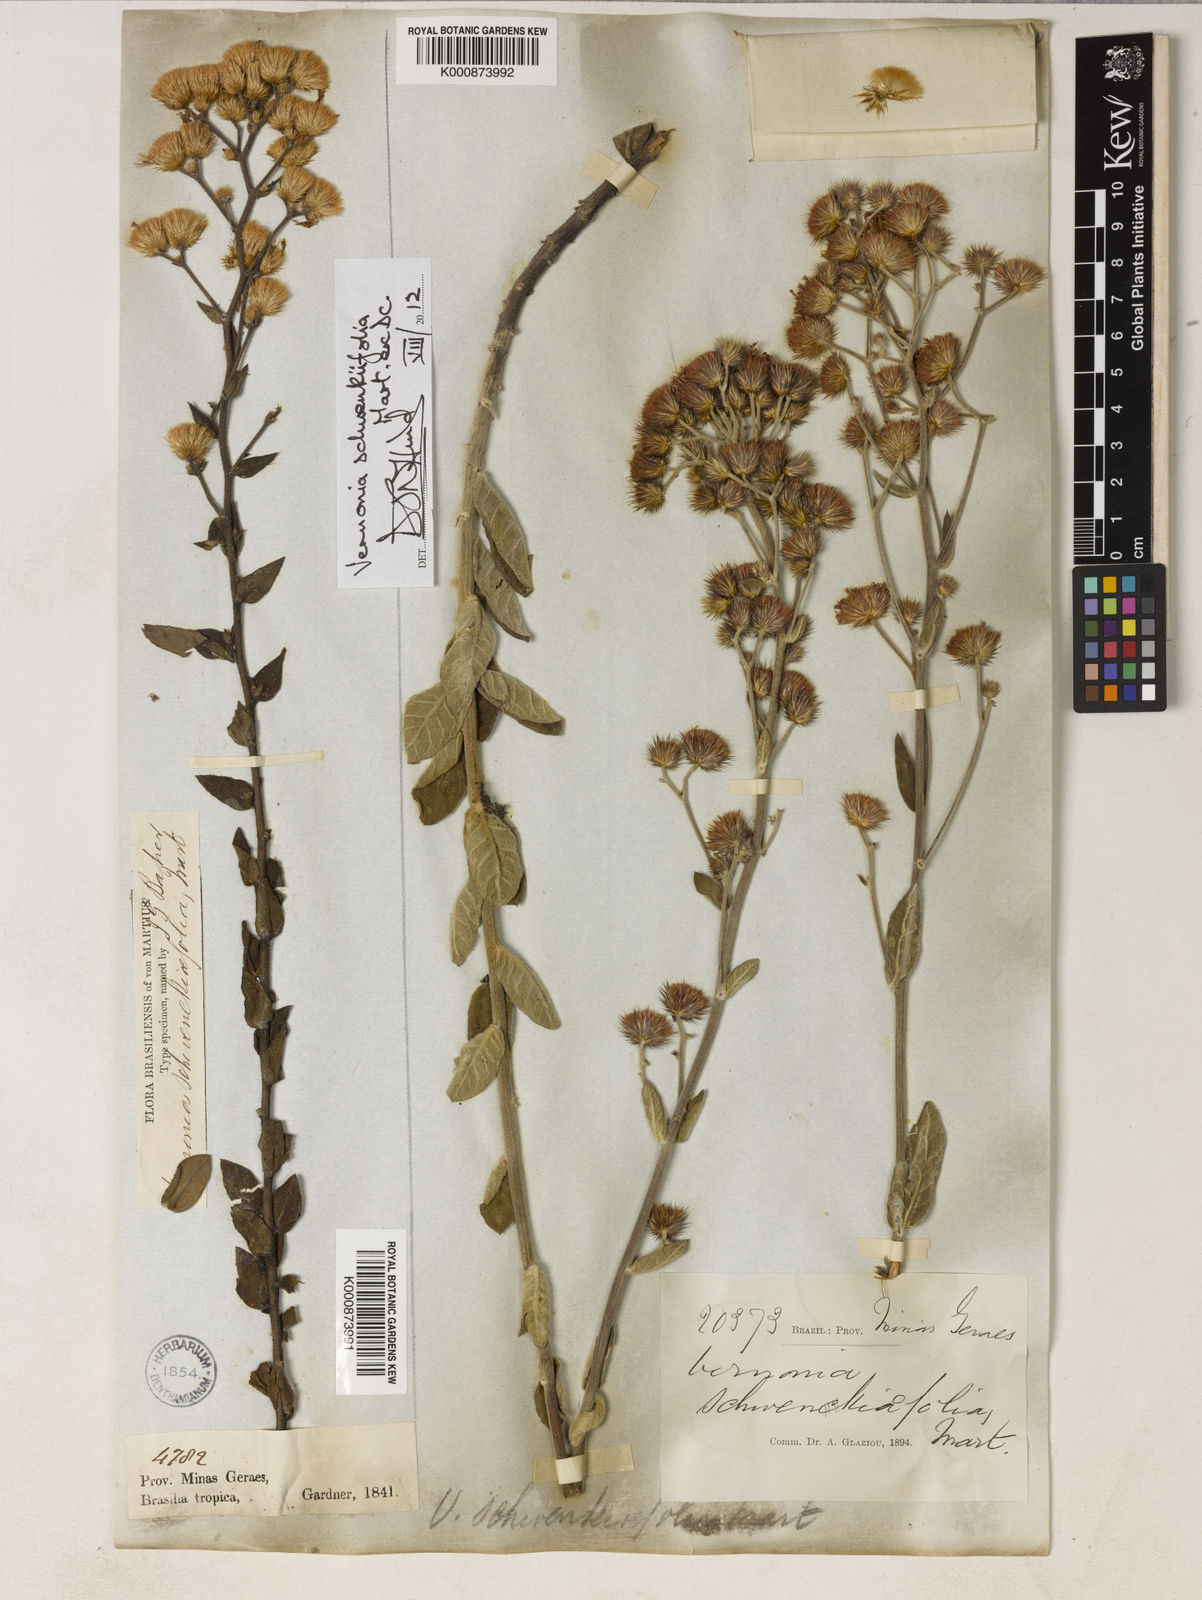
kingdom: Plantae
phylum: Tracheophyta
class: Magnoliopsida
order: Asterales
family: Asteraceae
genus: Vernonia
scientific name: Vernonia
